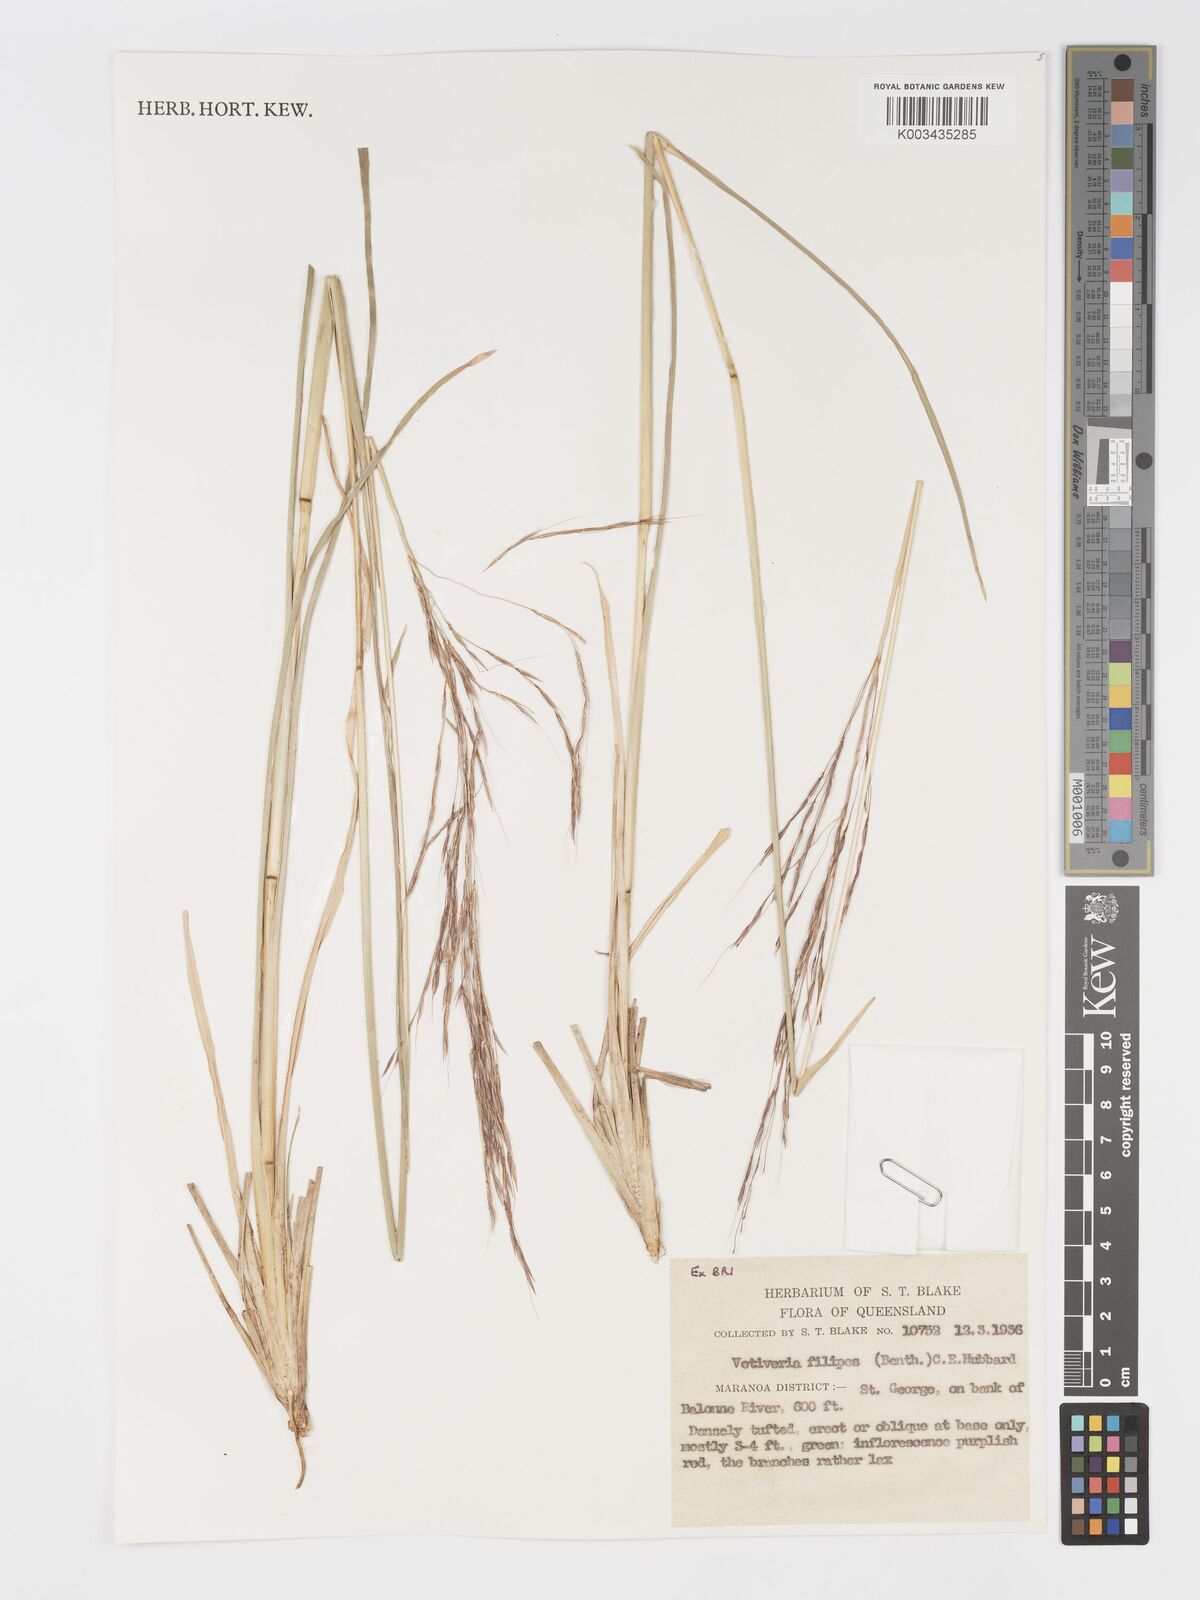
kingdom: Plantae
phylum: Tracheophyta
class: Liliopsida
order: Poales
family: Poaceae
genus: Chrysopogon
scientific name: Chrysopogon filipes
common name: Australian vetiver
